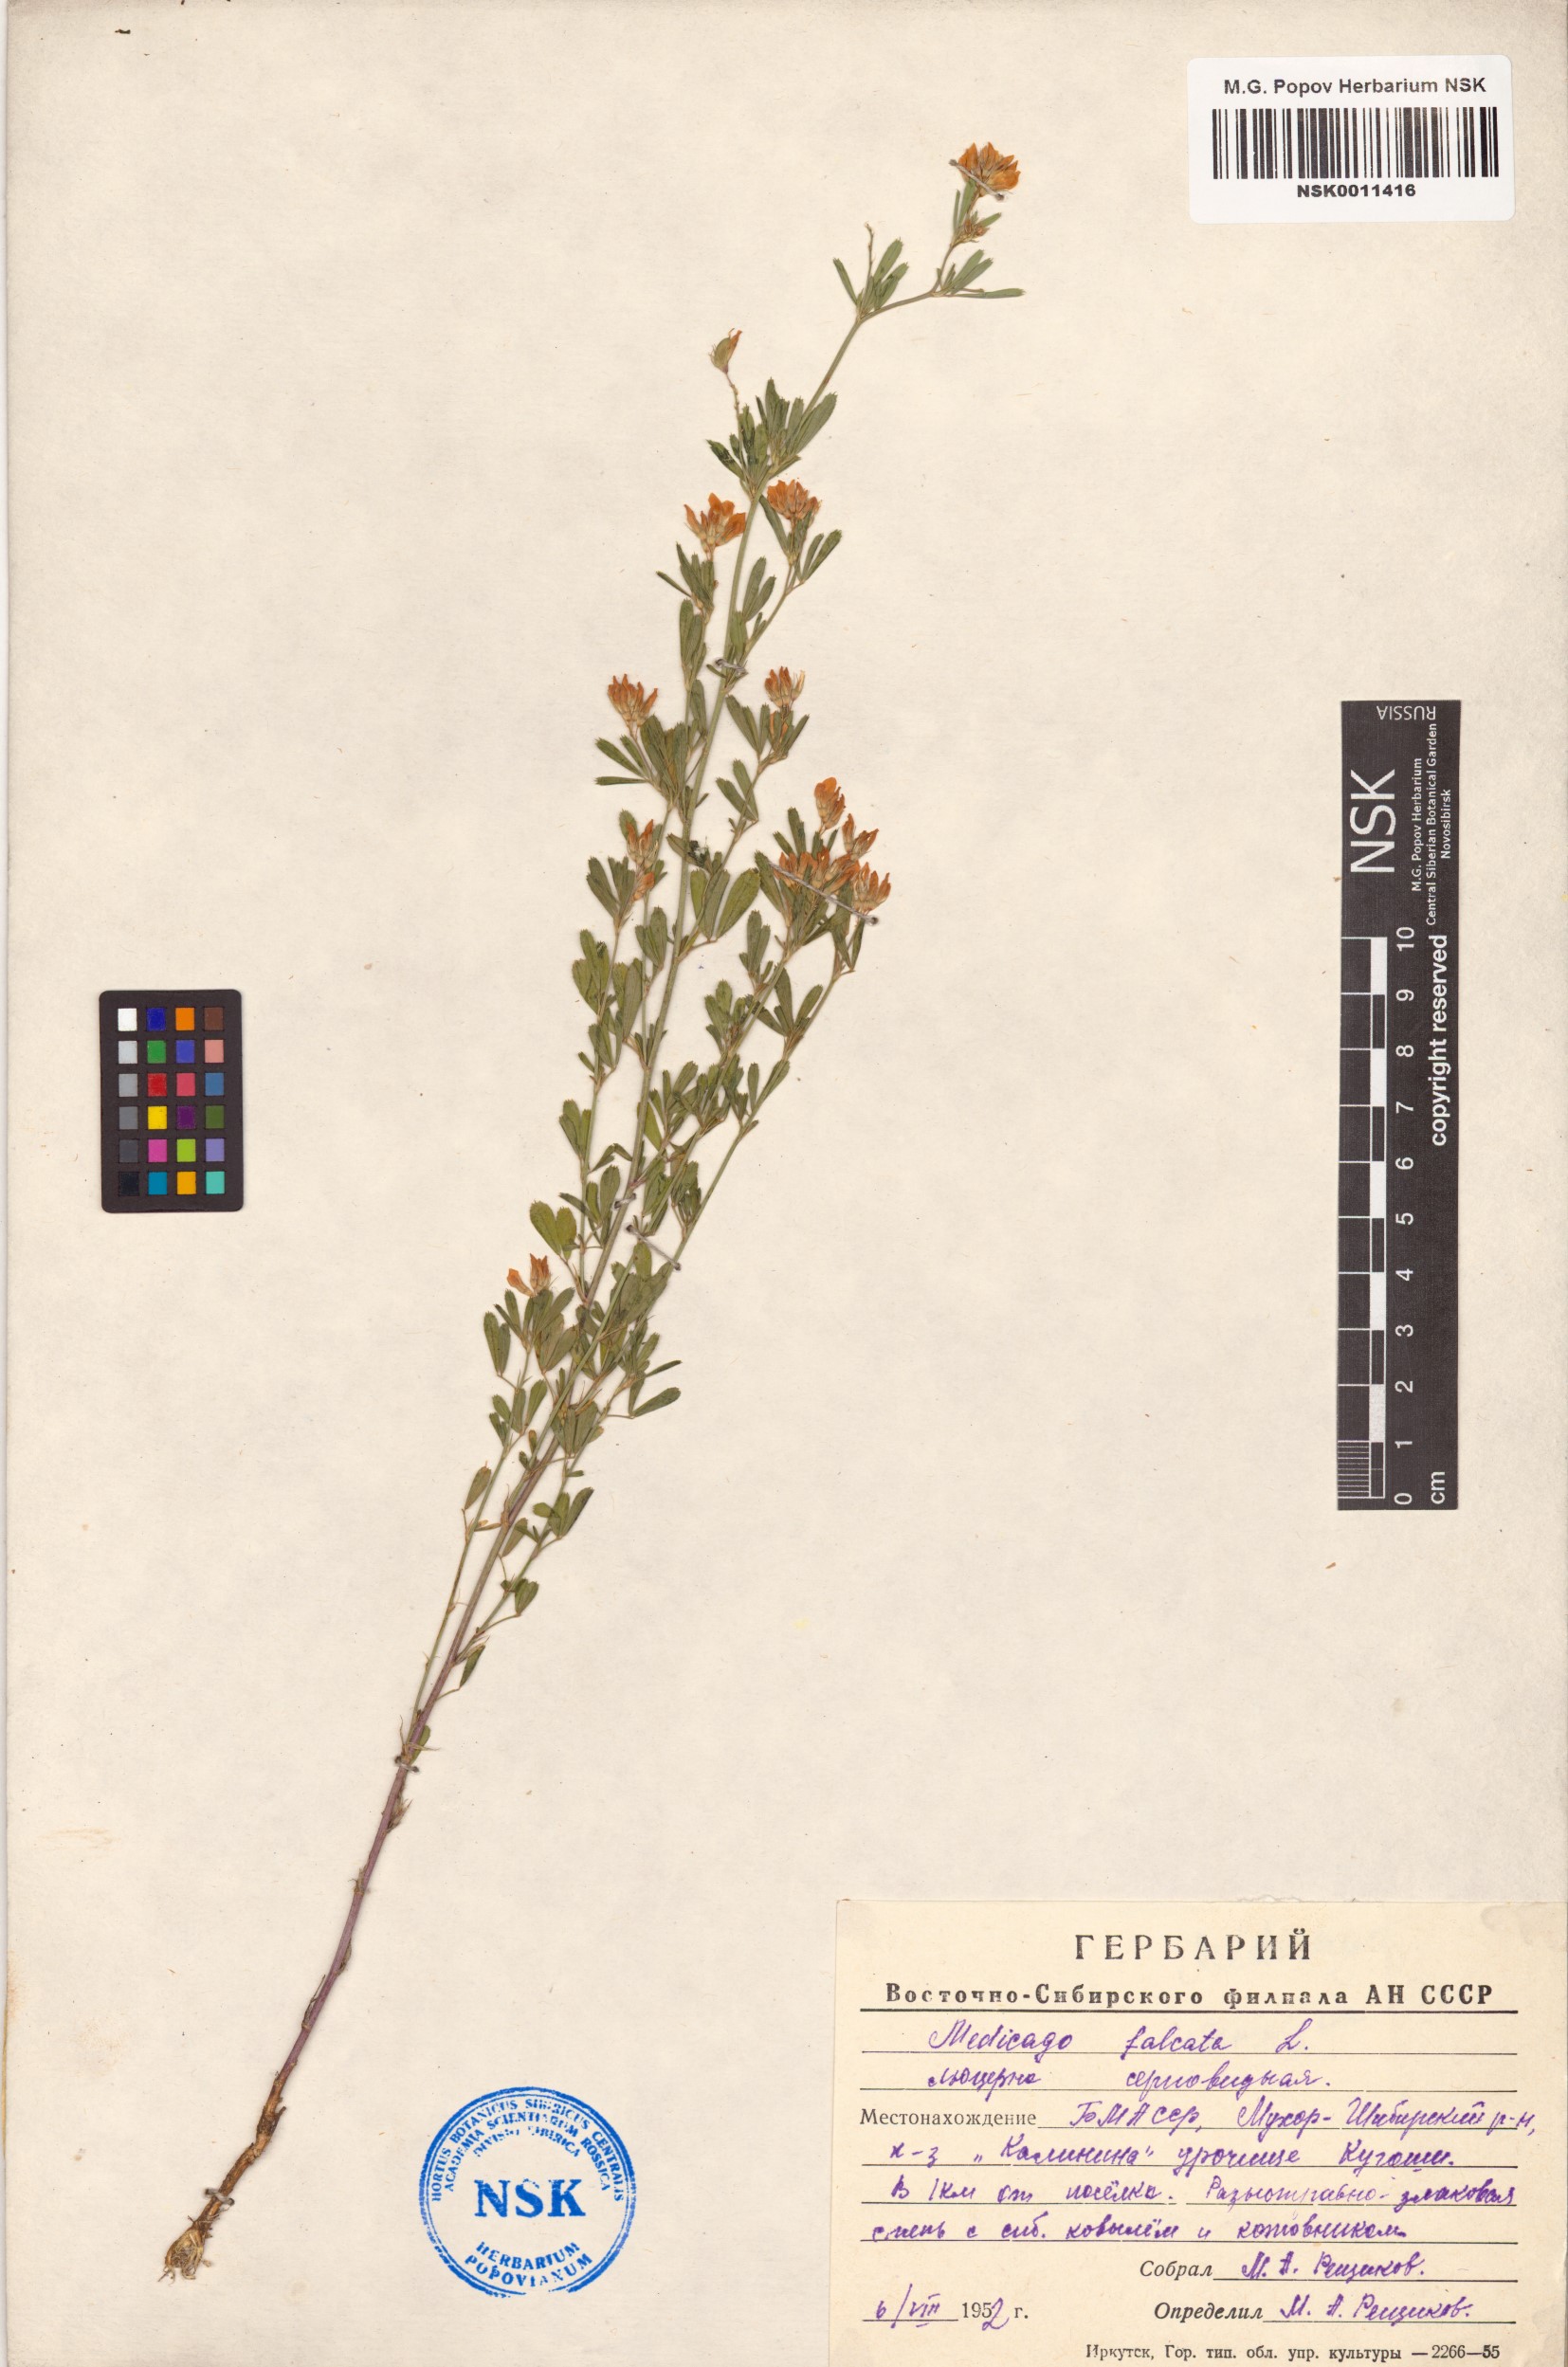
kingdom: Plantae
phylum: Tracheophyta
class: Magnoliopsida
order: Fabales
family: Fabaceae
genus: Medicago
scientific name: Medicago falcata
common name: Sickle medick
